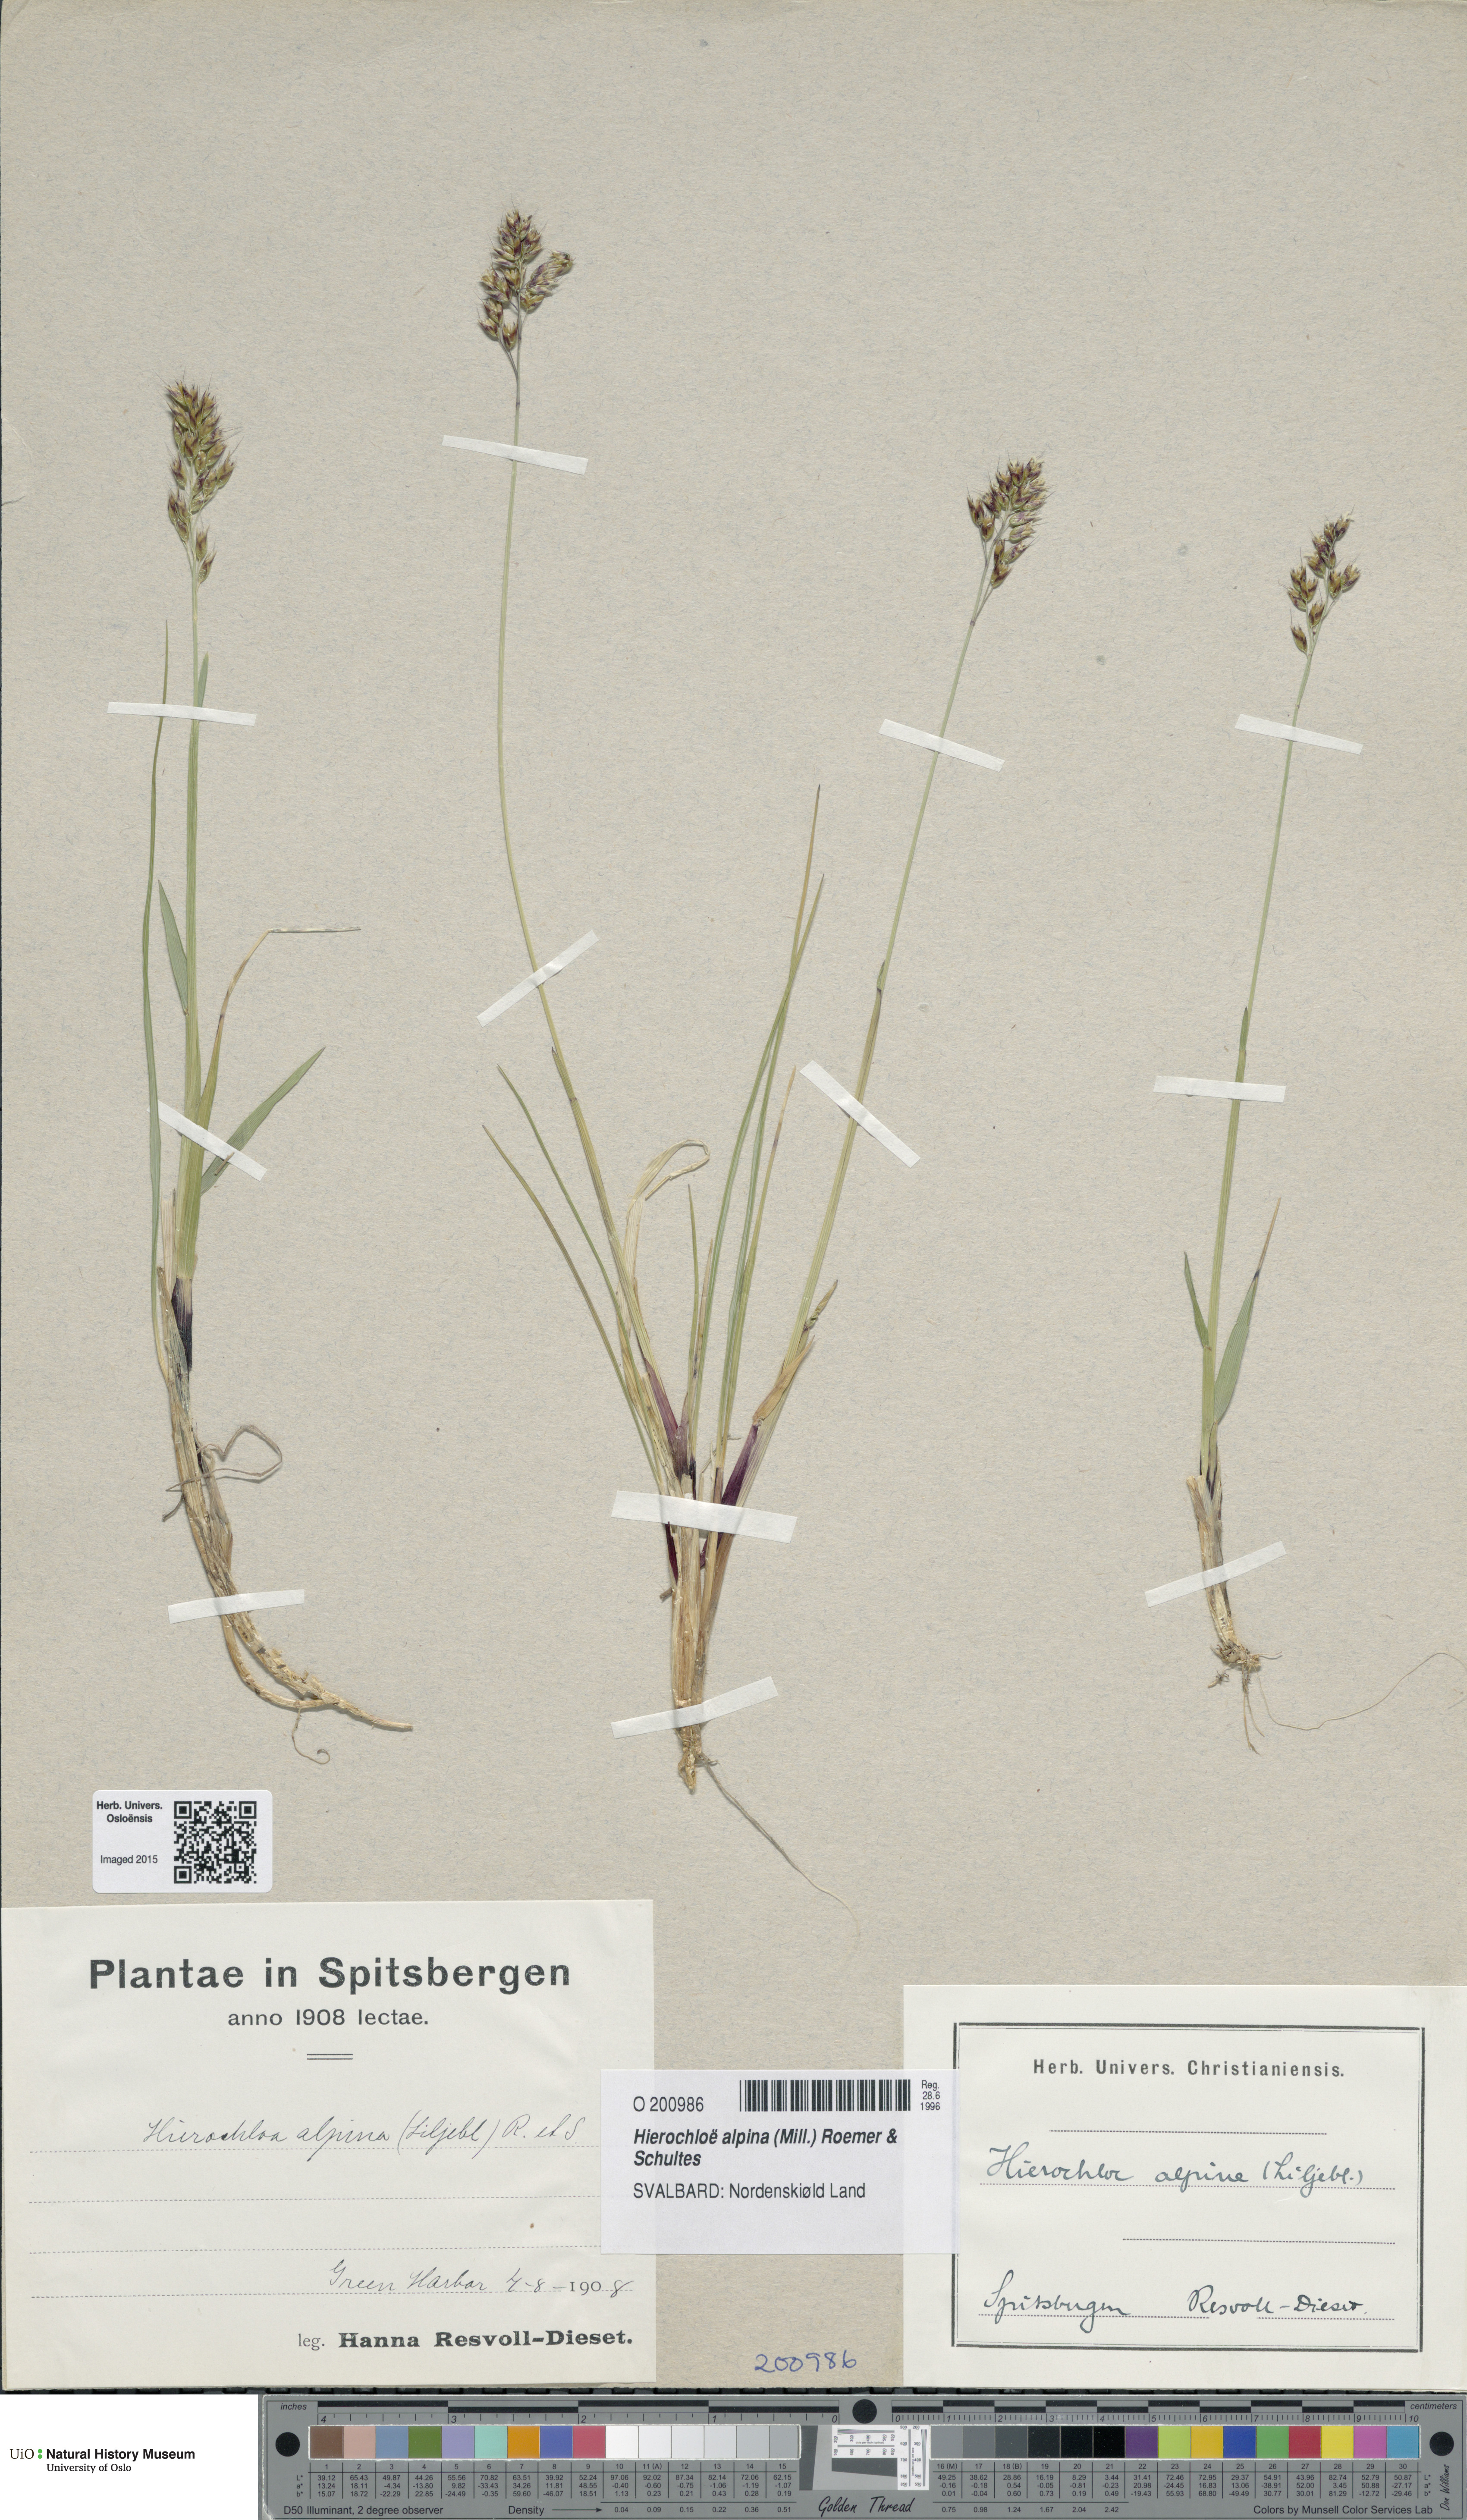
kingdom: Plantae
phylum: Tracheophyta
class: Liliopsida
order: Poales
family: Poaceae
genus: Anthoxanthum
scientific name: Anthoxanthum monticola
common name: Alpine sweetgrass
